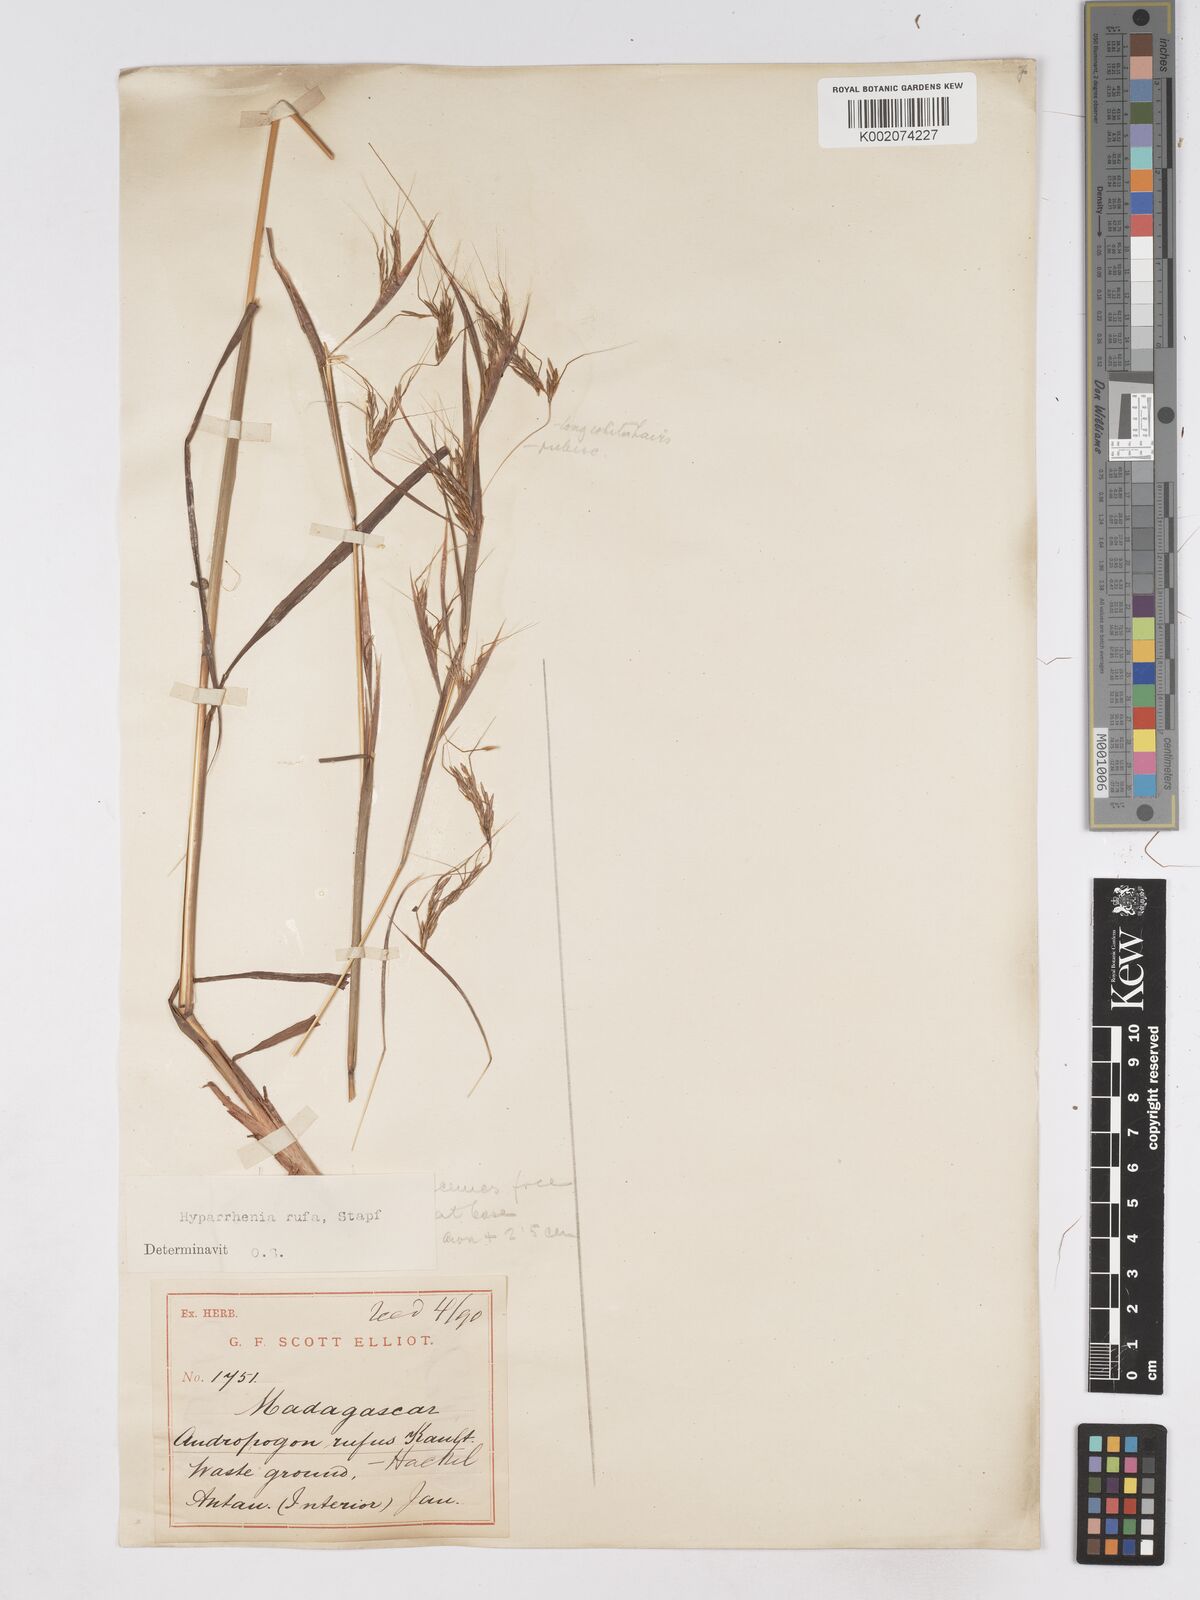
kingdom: Plantae
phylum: Tracheophyta
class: Liliopsida
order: Poales
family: Poaceae
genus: Hyparrhenia
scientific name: Hyparrhenia rufa
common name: Jaraguagrass
